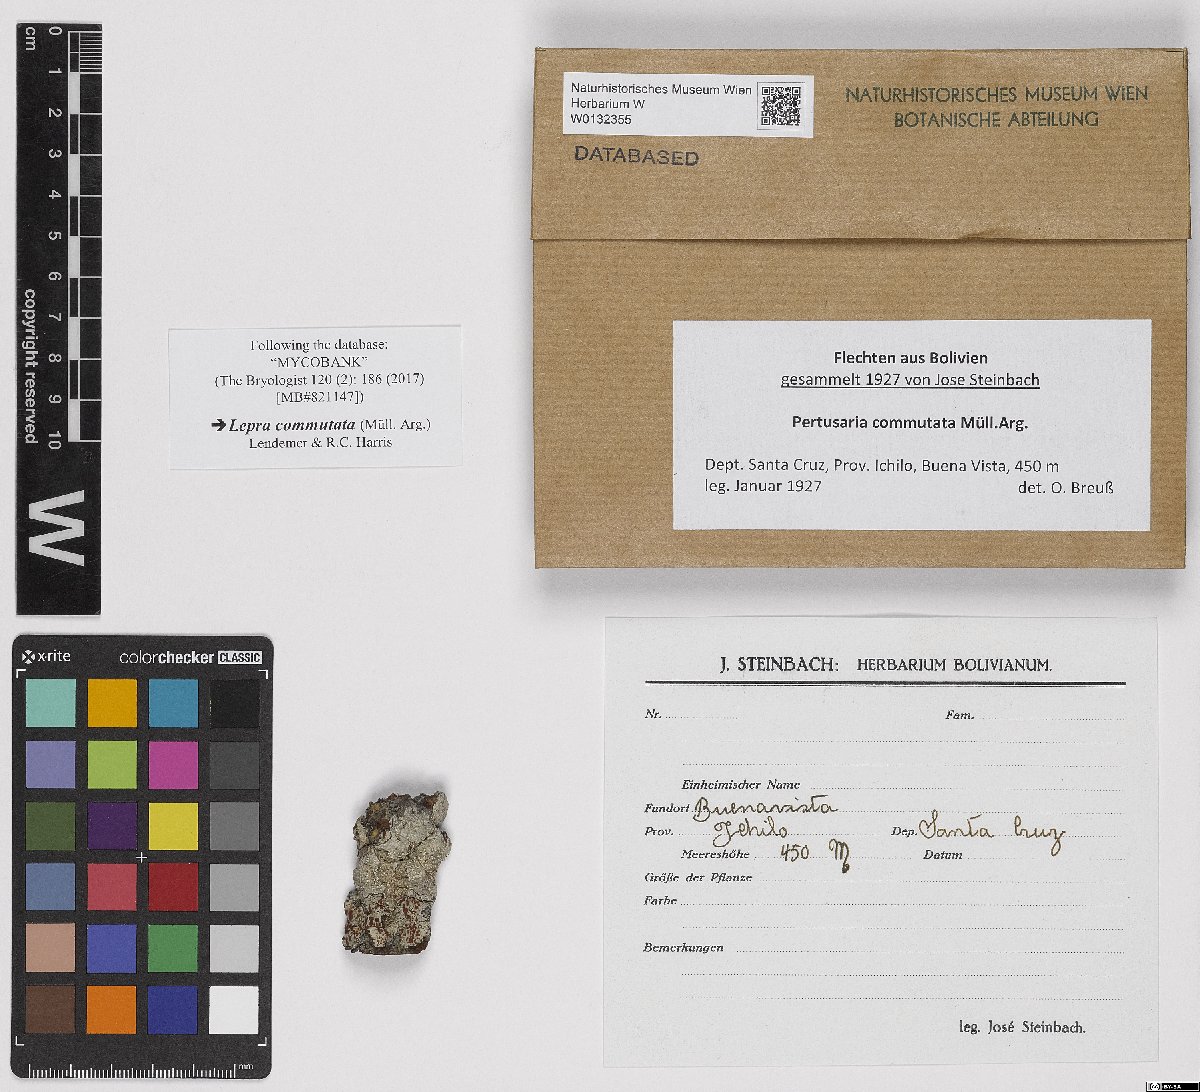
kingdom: Fungi
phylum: Ascomycota
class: Lecanoromycetes
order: Pertusariales
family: Pertusariaceae
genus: Lepra
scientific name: Lepra commutata
